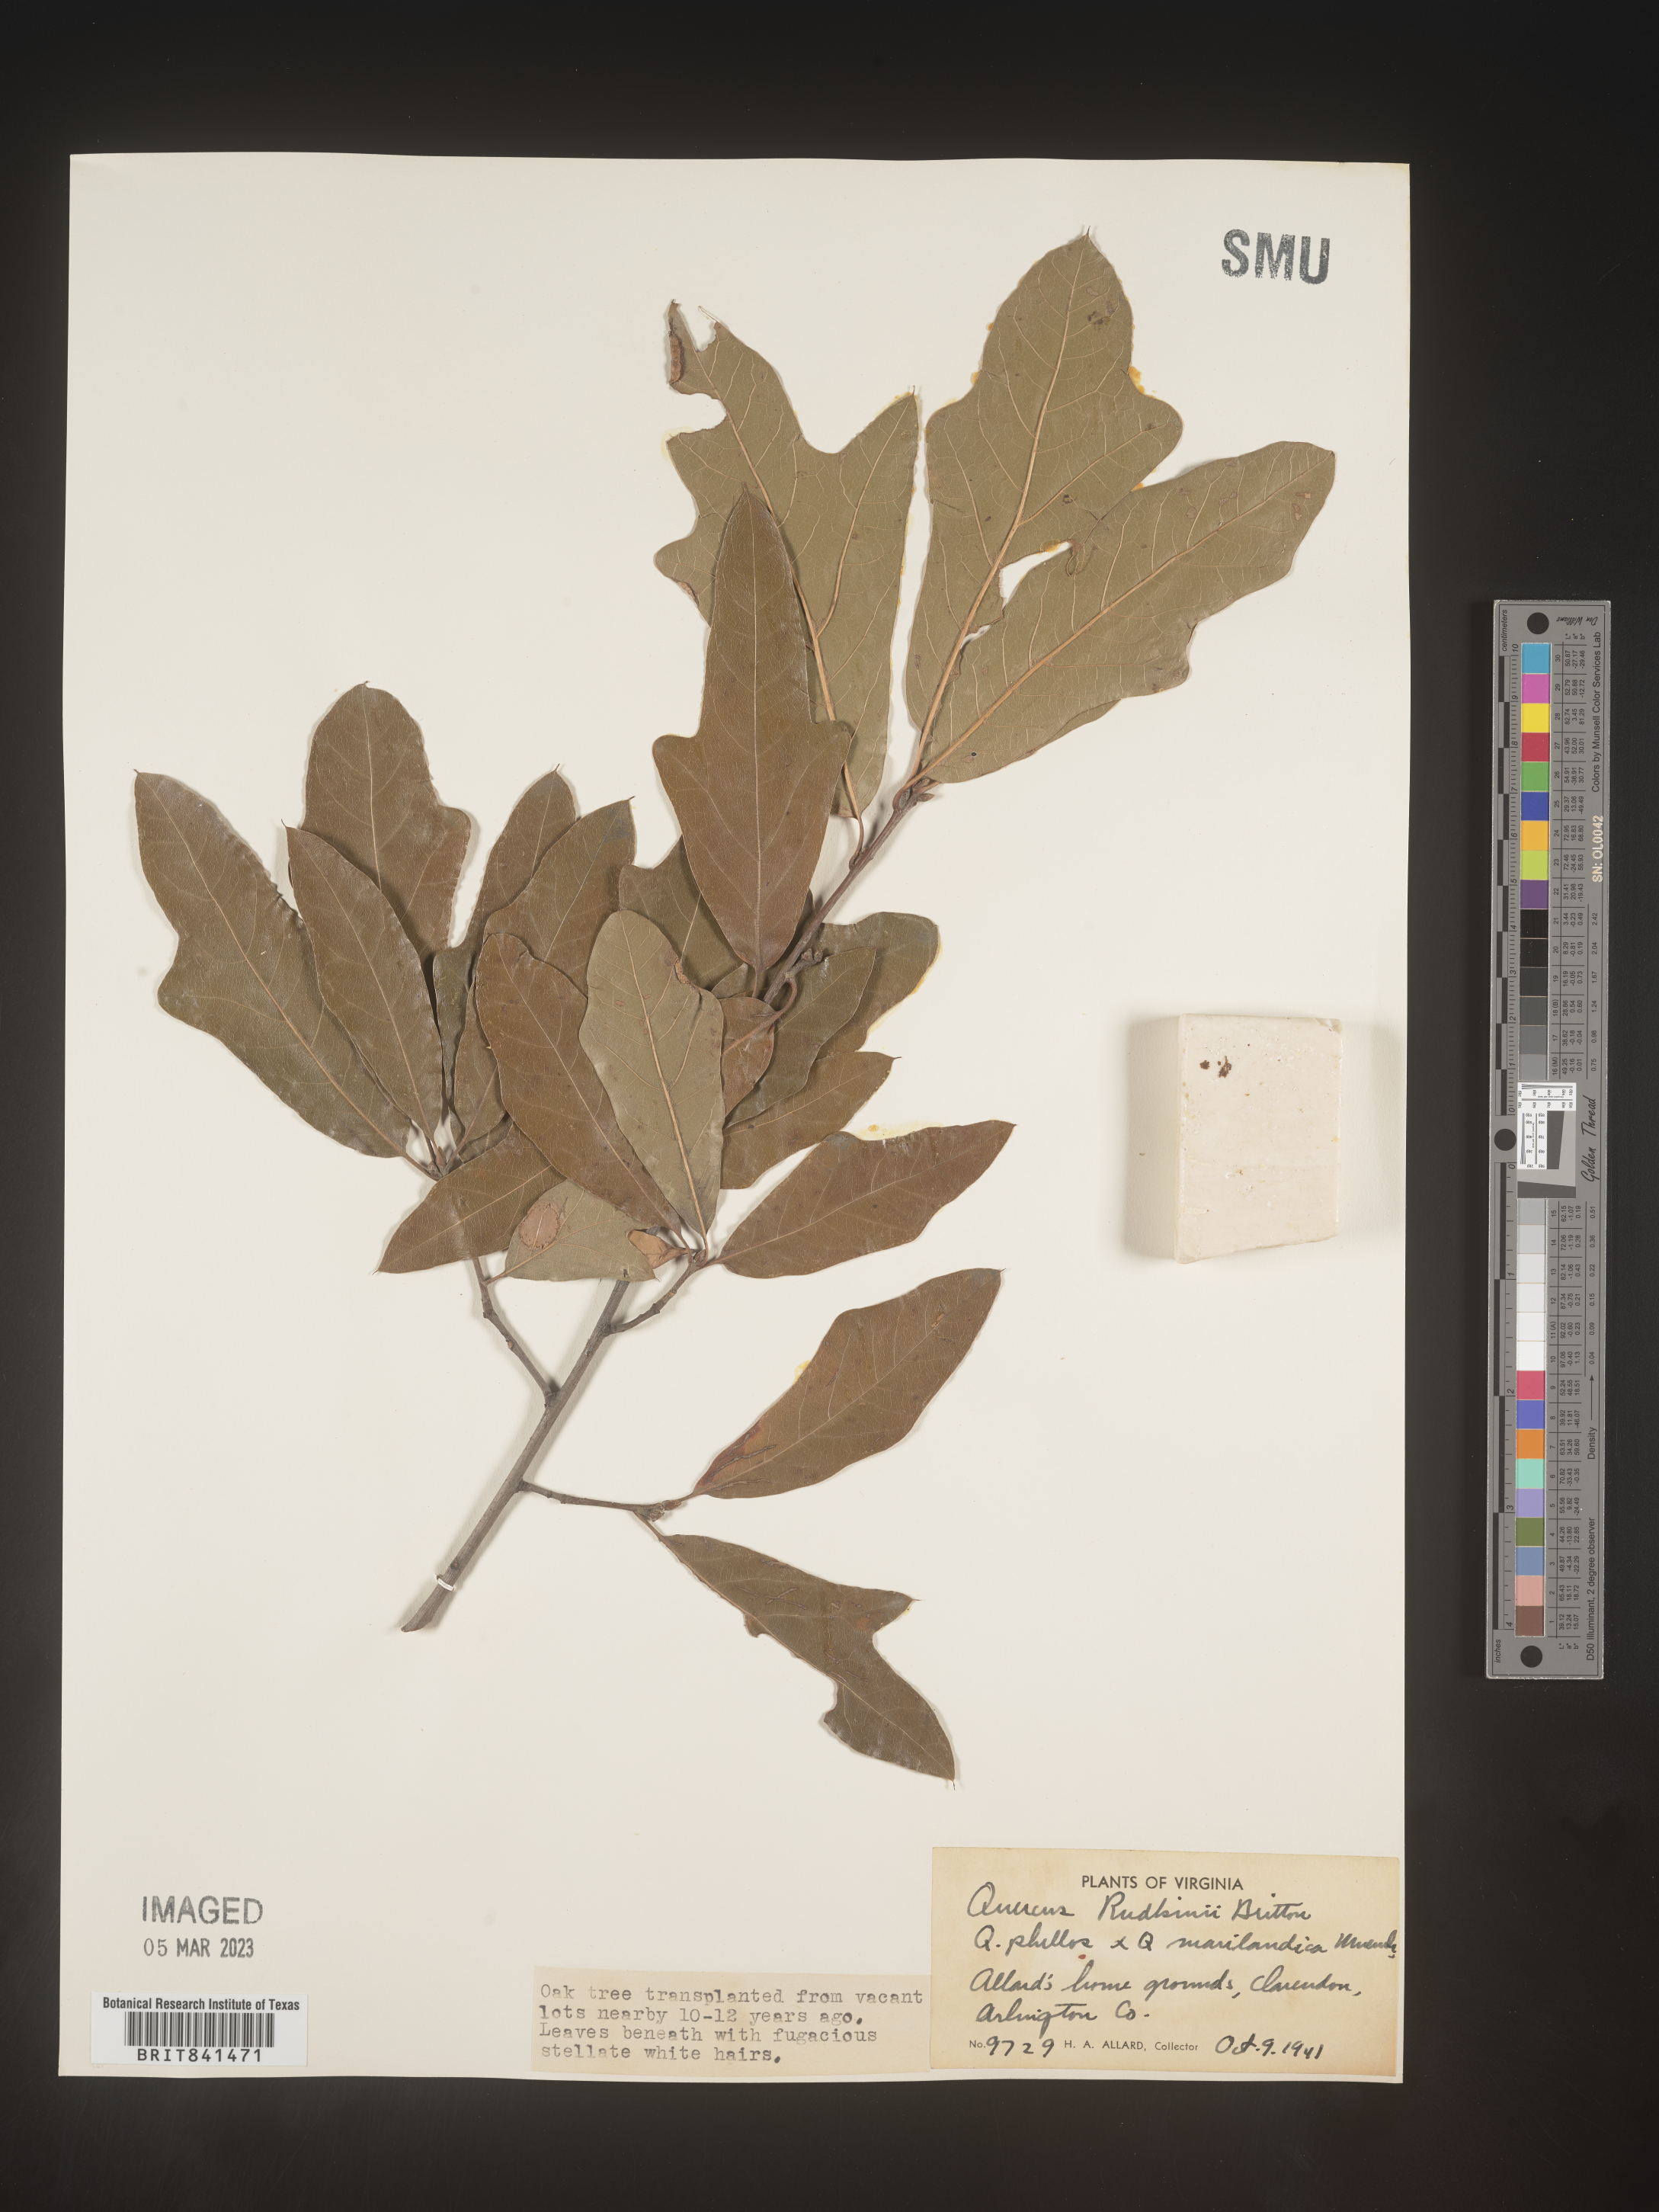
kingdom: Plantae
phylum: Tracheophyta
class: Magnoliopsida
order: Fagales
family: Fagaceae
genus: Quercus
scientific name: Quercus rudkinii
